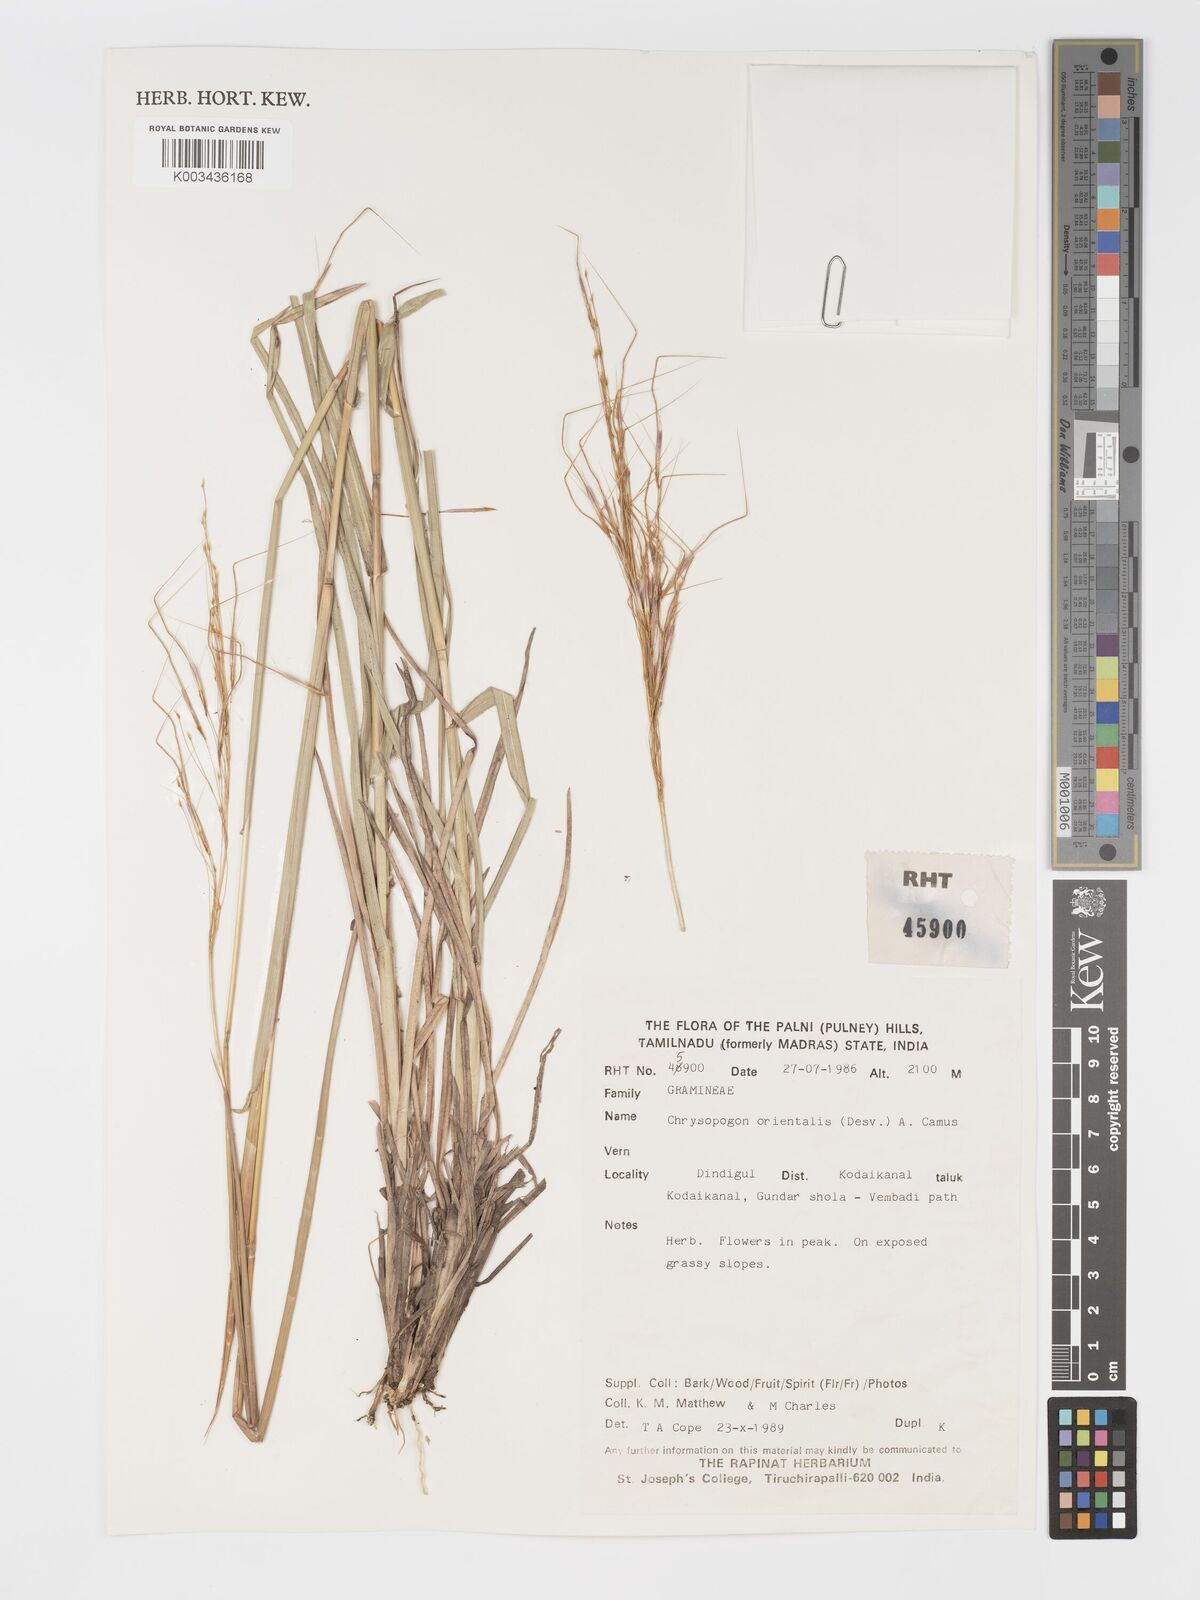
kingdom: Plantae
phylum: Tracheophyta
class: Liliopsida
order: Poales
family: Poaceae
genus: Chrysopogon
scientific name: Chrysopogon orientalis
